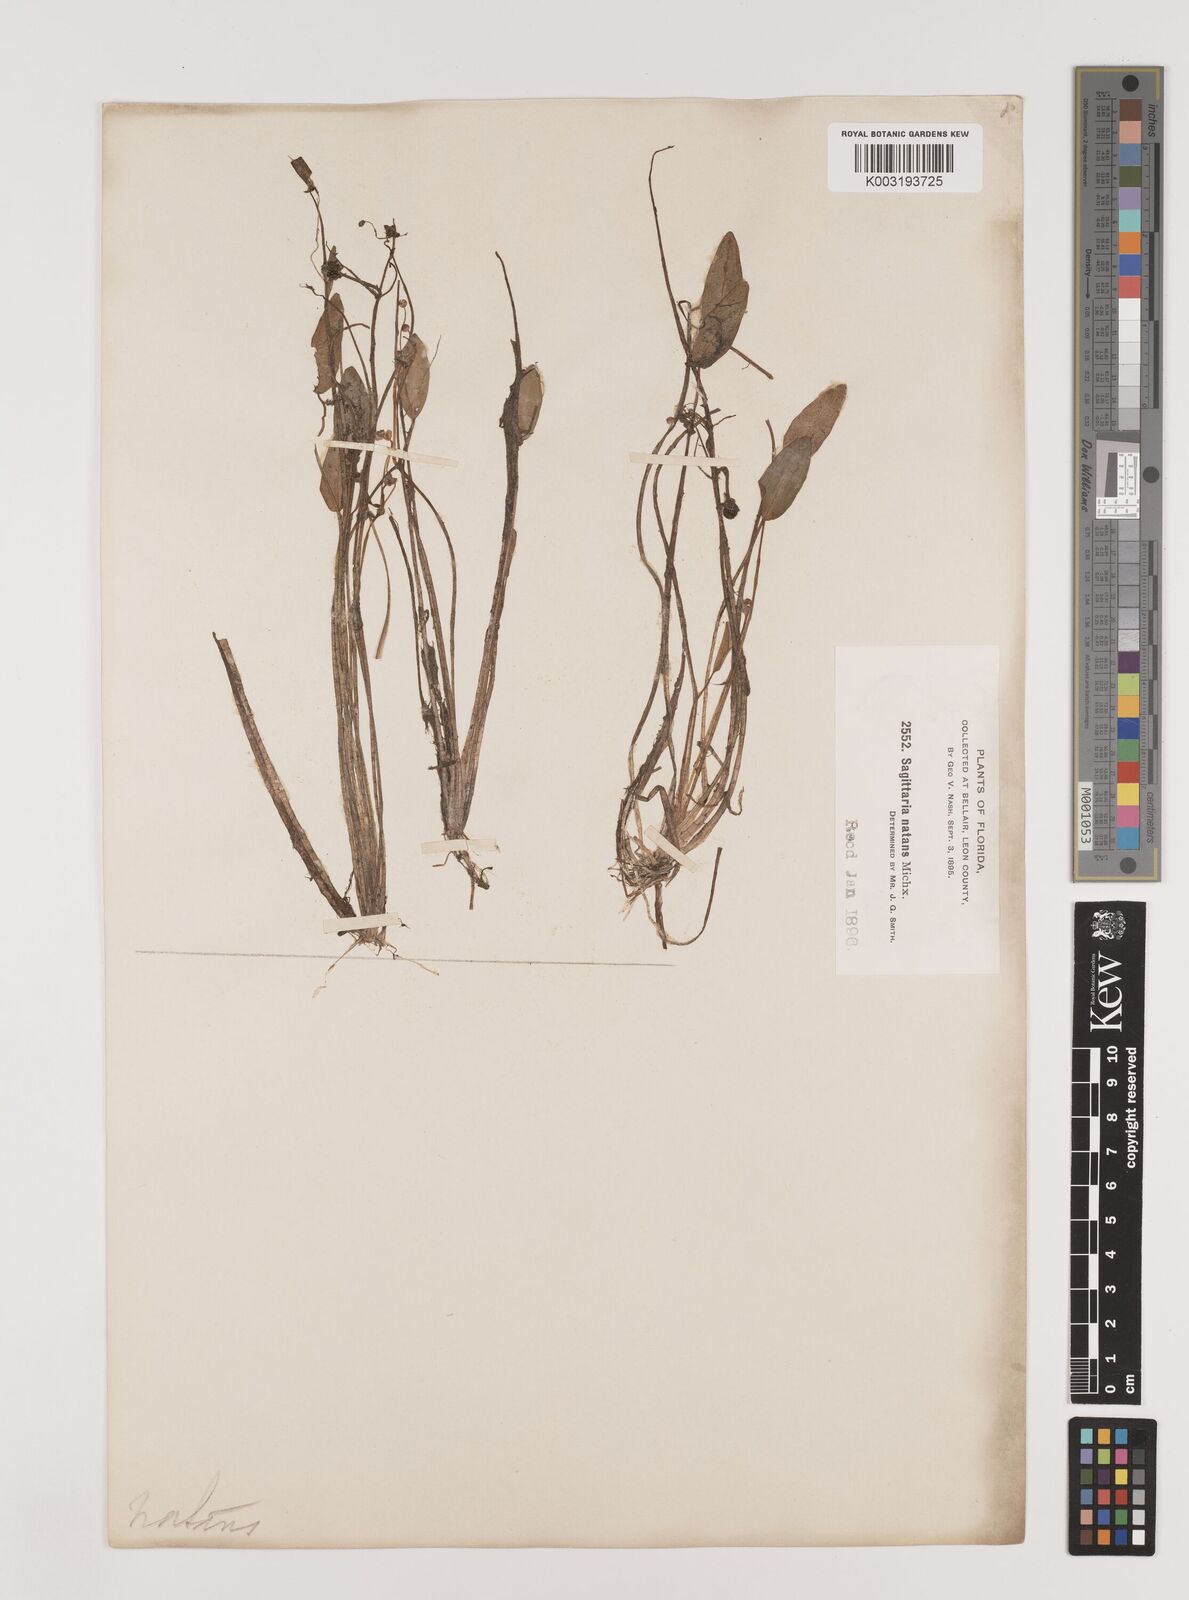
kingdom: Plantae
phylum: Tracheophyta
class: Liliopsida
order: Alismatales
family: Alismataceae
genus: Sagittaria
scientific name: Sagittaria subulata
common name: Narrow-leaved arrowhead
